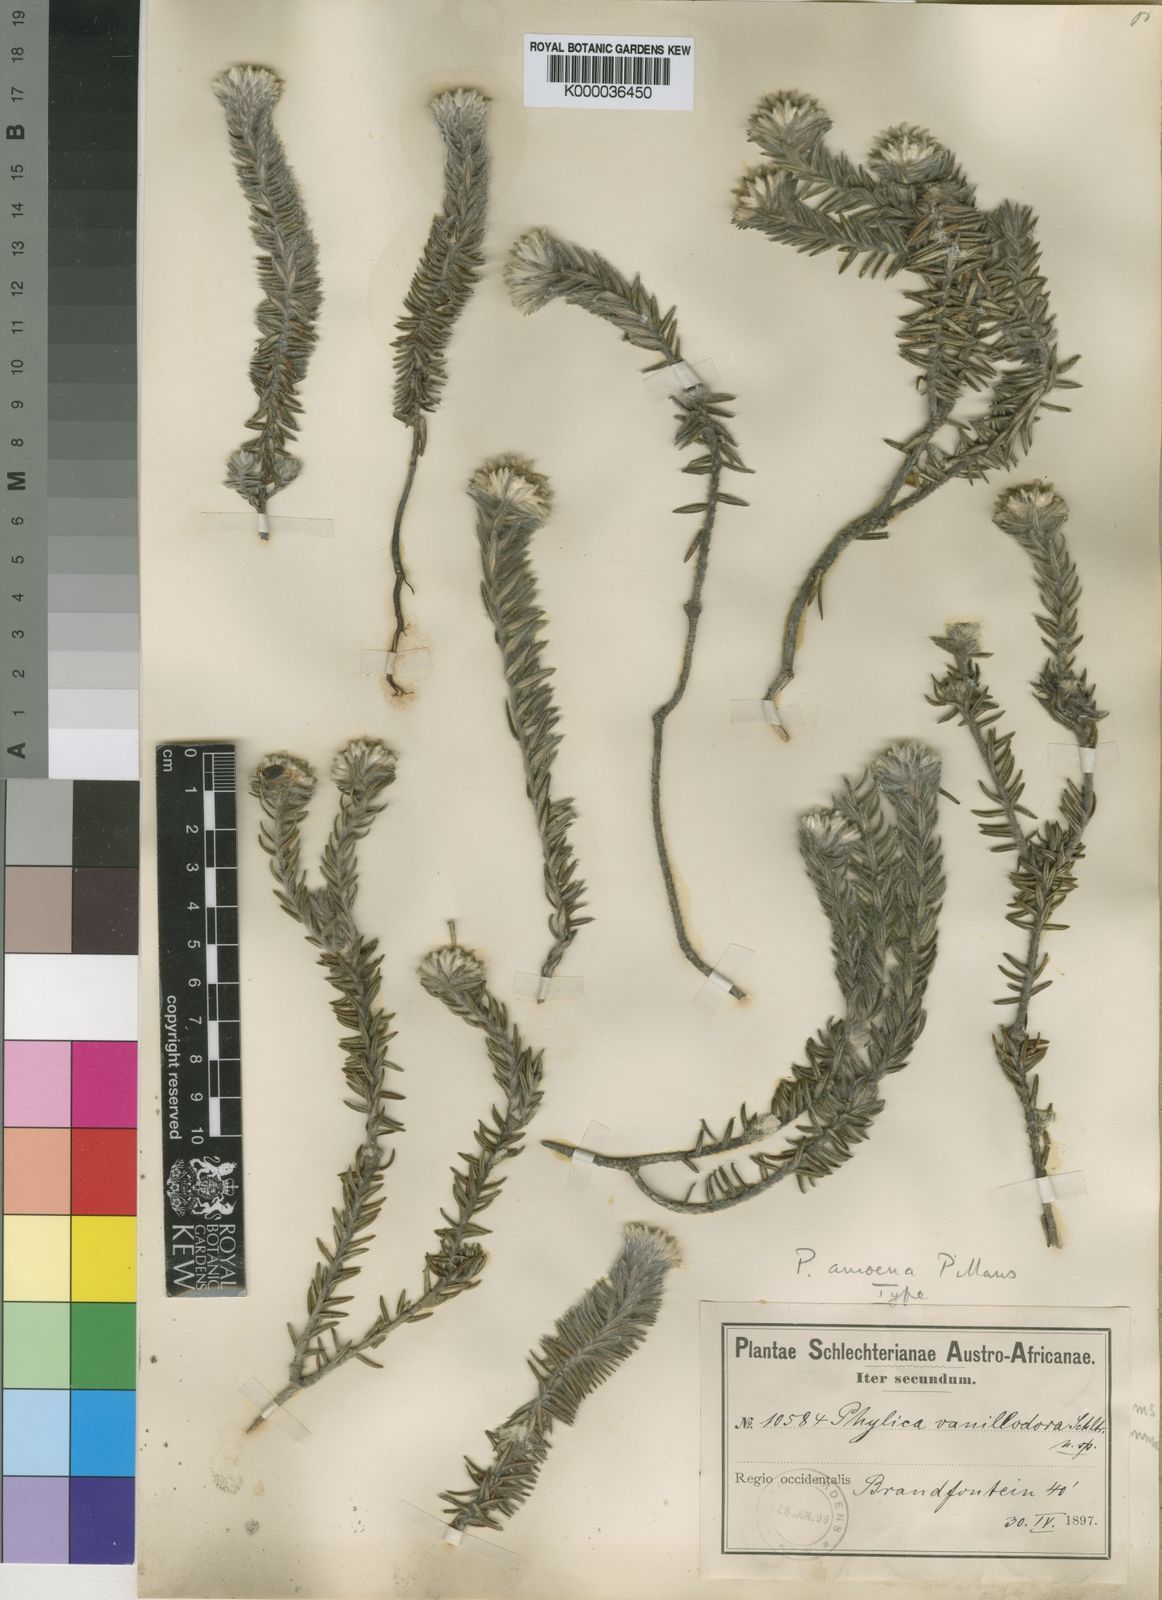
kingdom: Plantae
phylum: Tracheophyta
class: Magnoliopsida
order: Rosales
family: Rhamnaceae
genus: Phylica
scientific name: Phylica amoena
